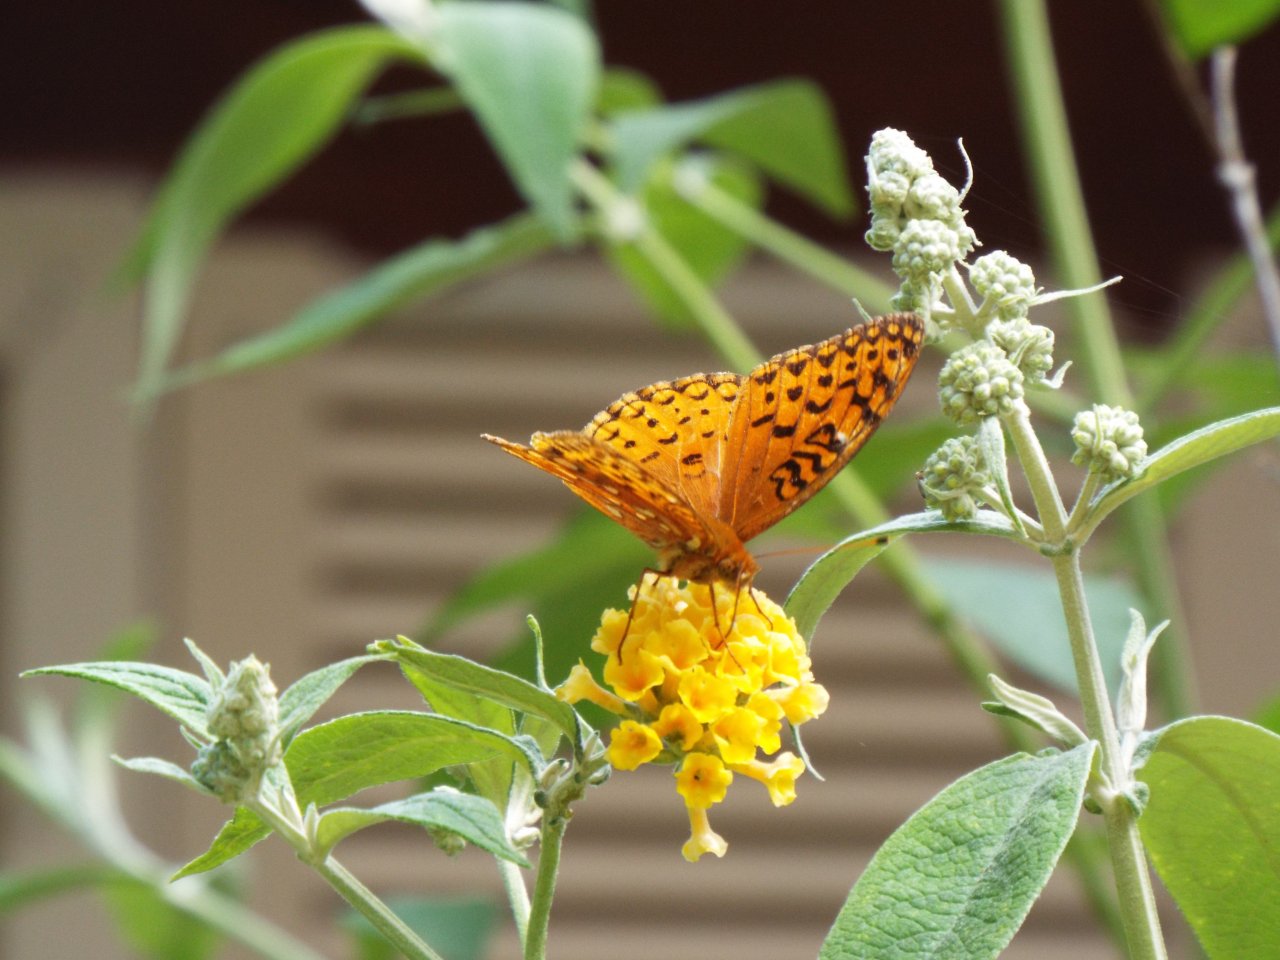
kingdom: Animalia
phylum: Arthropoda
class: Insecta
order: Lepidoptera
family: Nymphalidae
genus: Speyeria
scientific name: Speyeria aphrodite
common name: Aphrodite Fritillary
